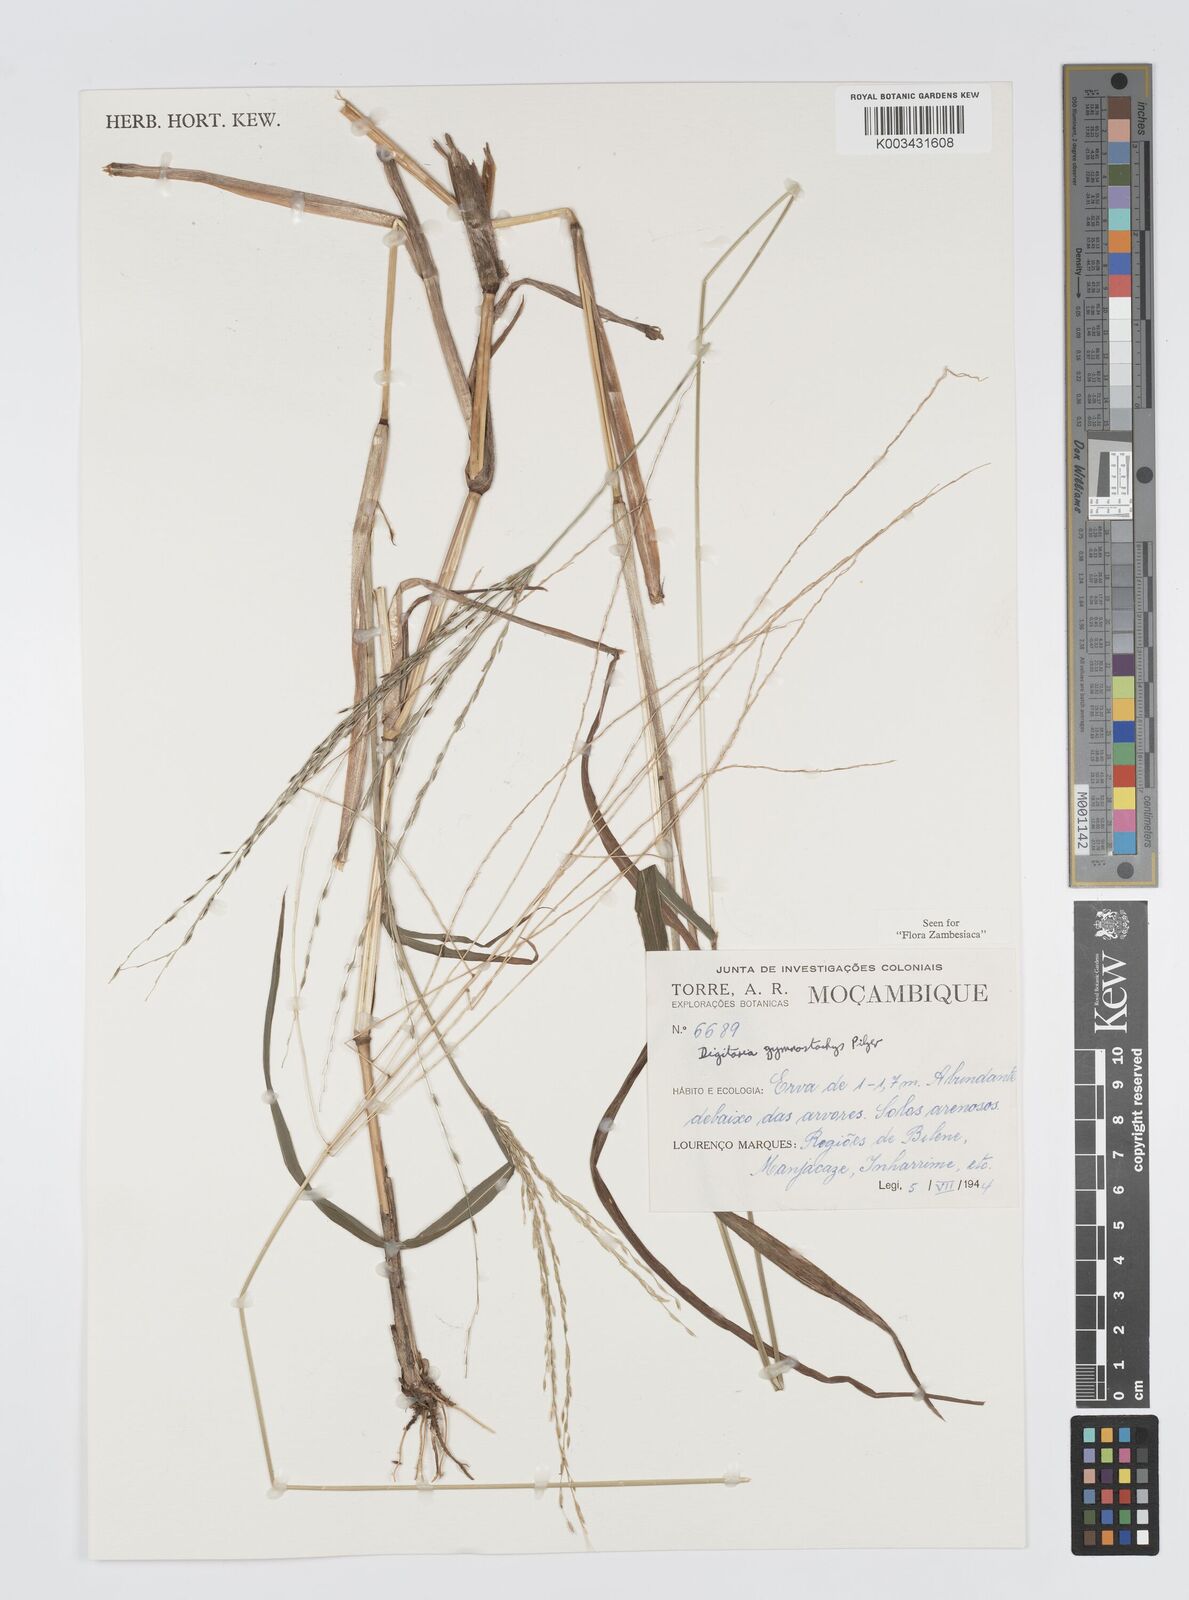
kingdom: Plantae
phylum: Tracheophyta
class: Liliopsida
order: Poales
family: Poaceae
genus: Digitaria
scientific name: Digitaria gymnostachys
